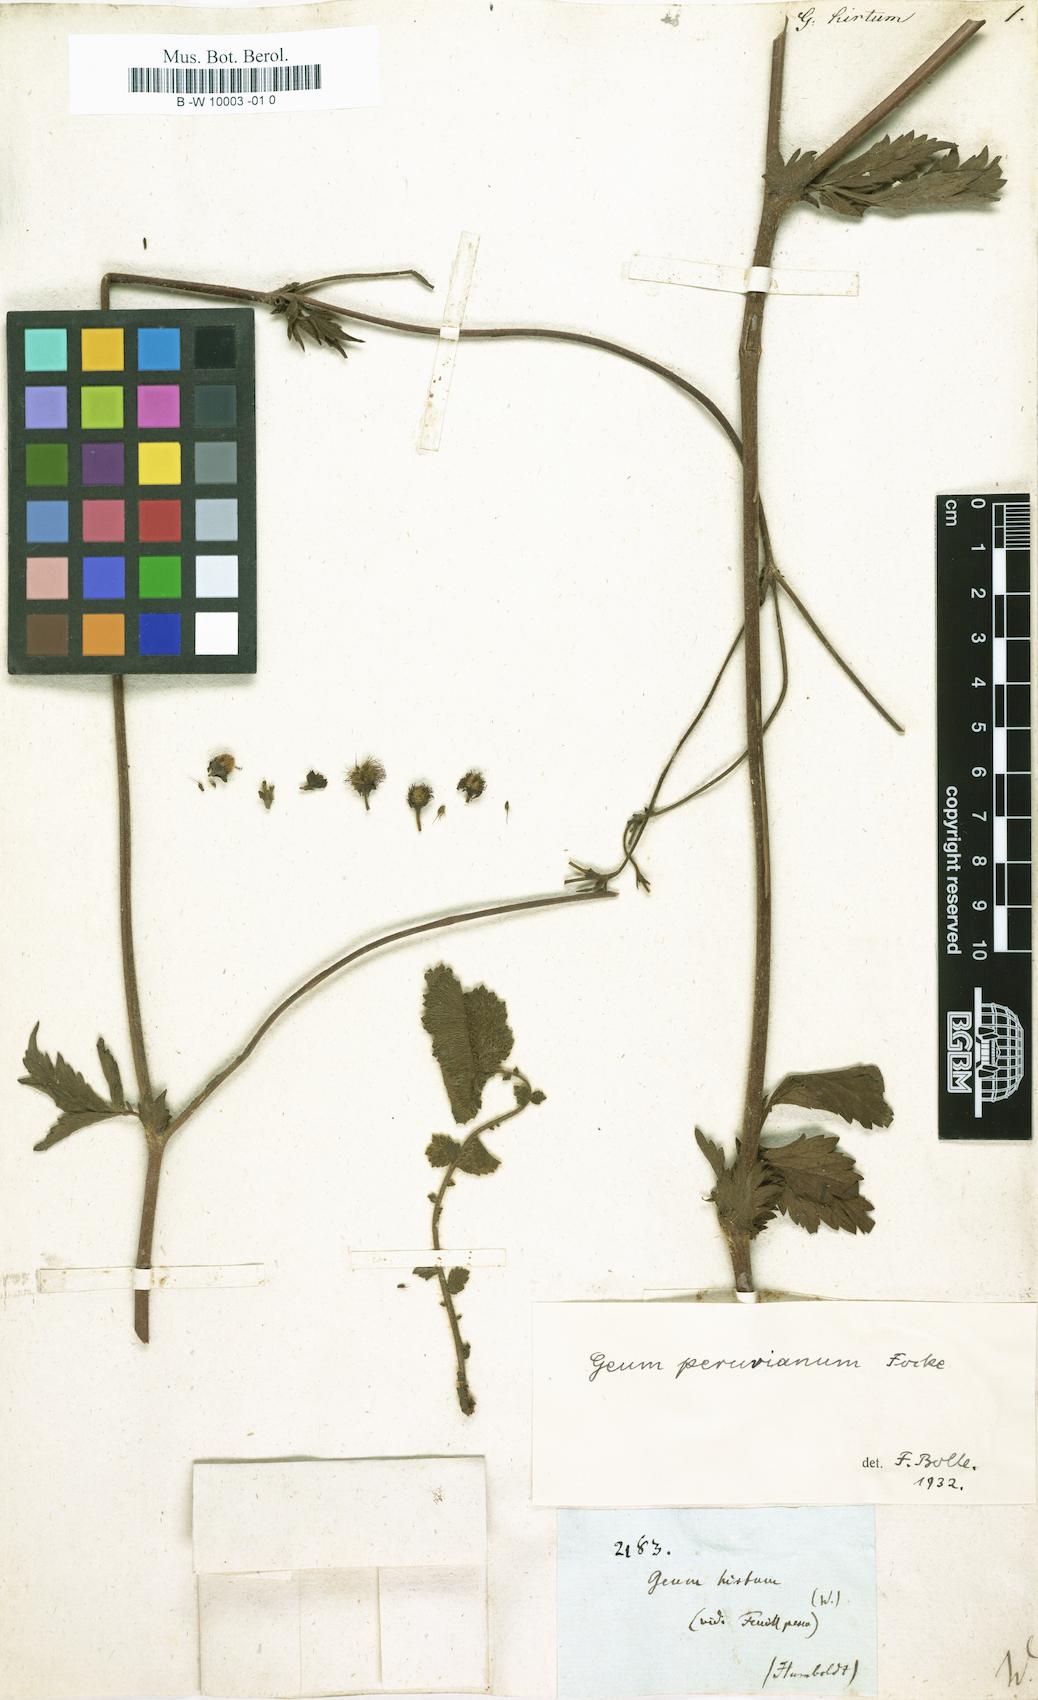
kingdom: Plantae
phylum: Tracheophyta
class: Magnoliopsida
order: Rosales
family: Rosaceae
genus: Geum
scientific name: Geum urbanum
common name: Wood avens
